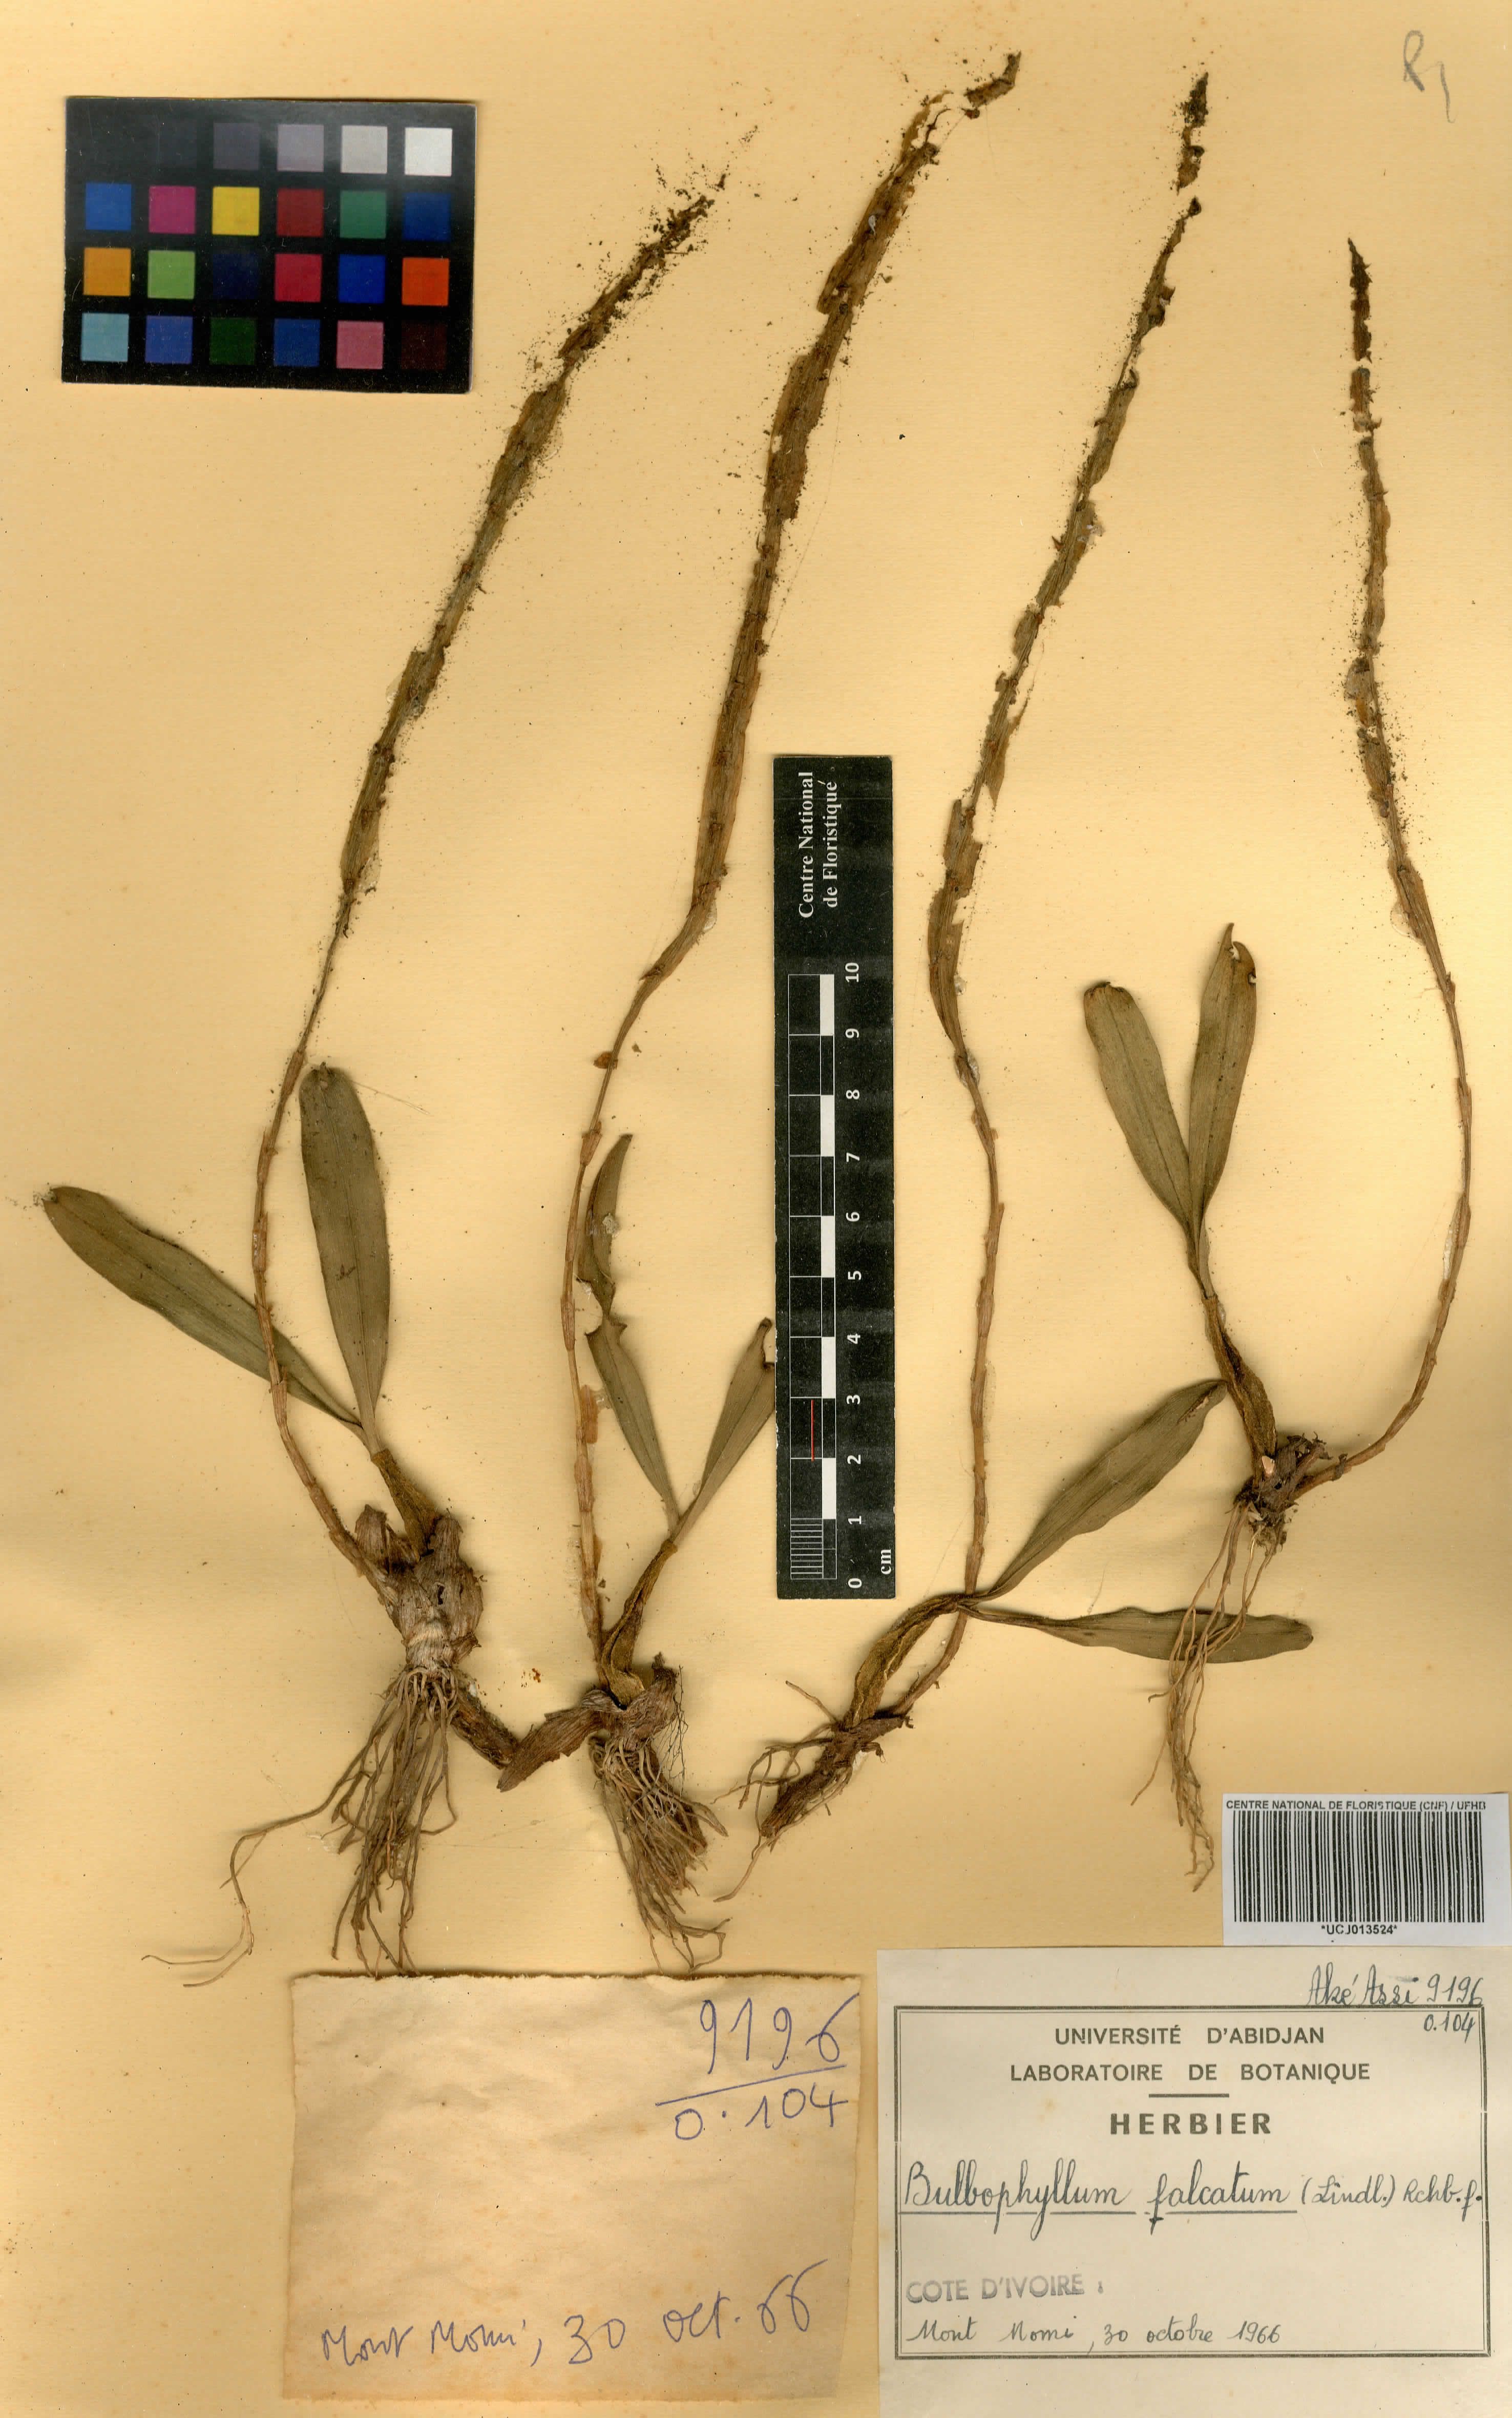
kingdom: Plantae
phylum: Tracheophyta
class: Liliopsida
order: Asparagales
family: Orchidaceae
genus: Bulbophyllum
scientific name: Bulbophyllum falcatum
